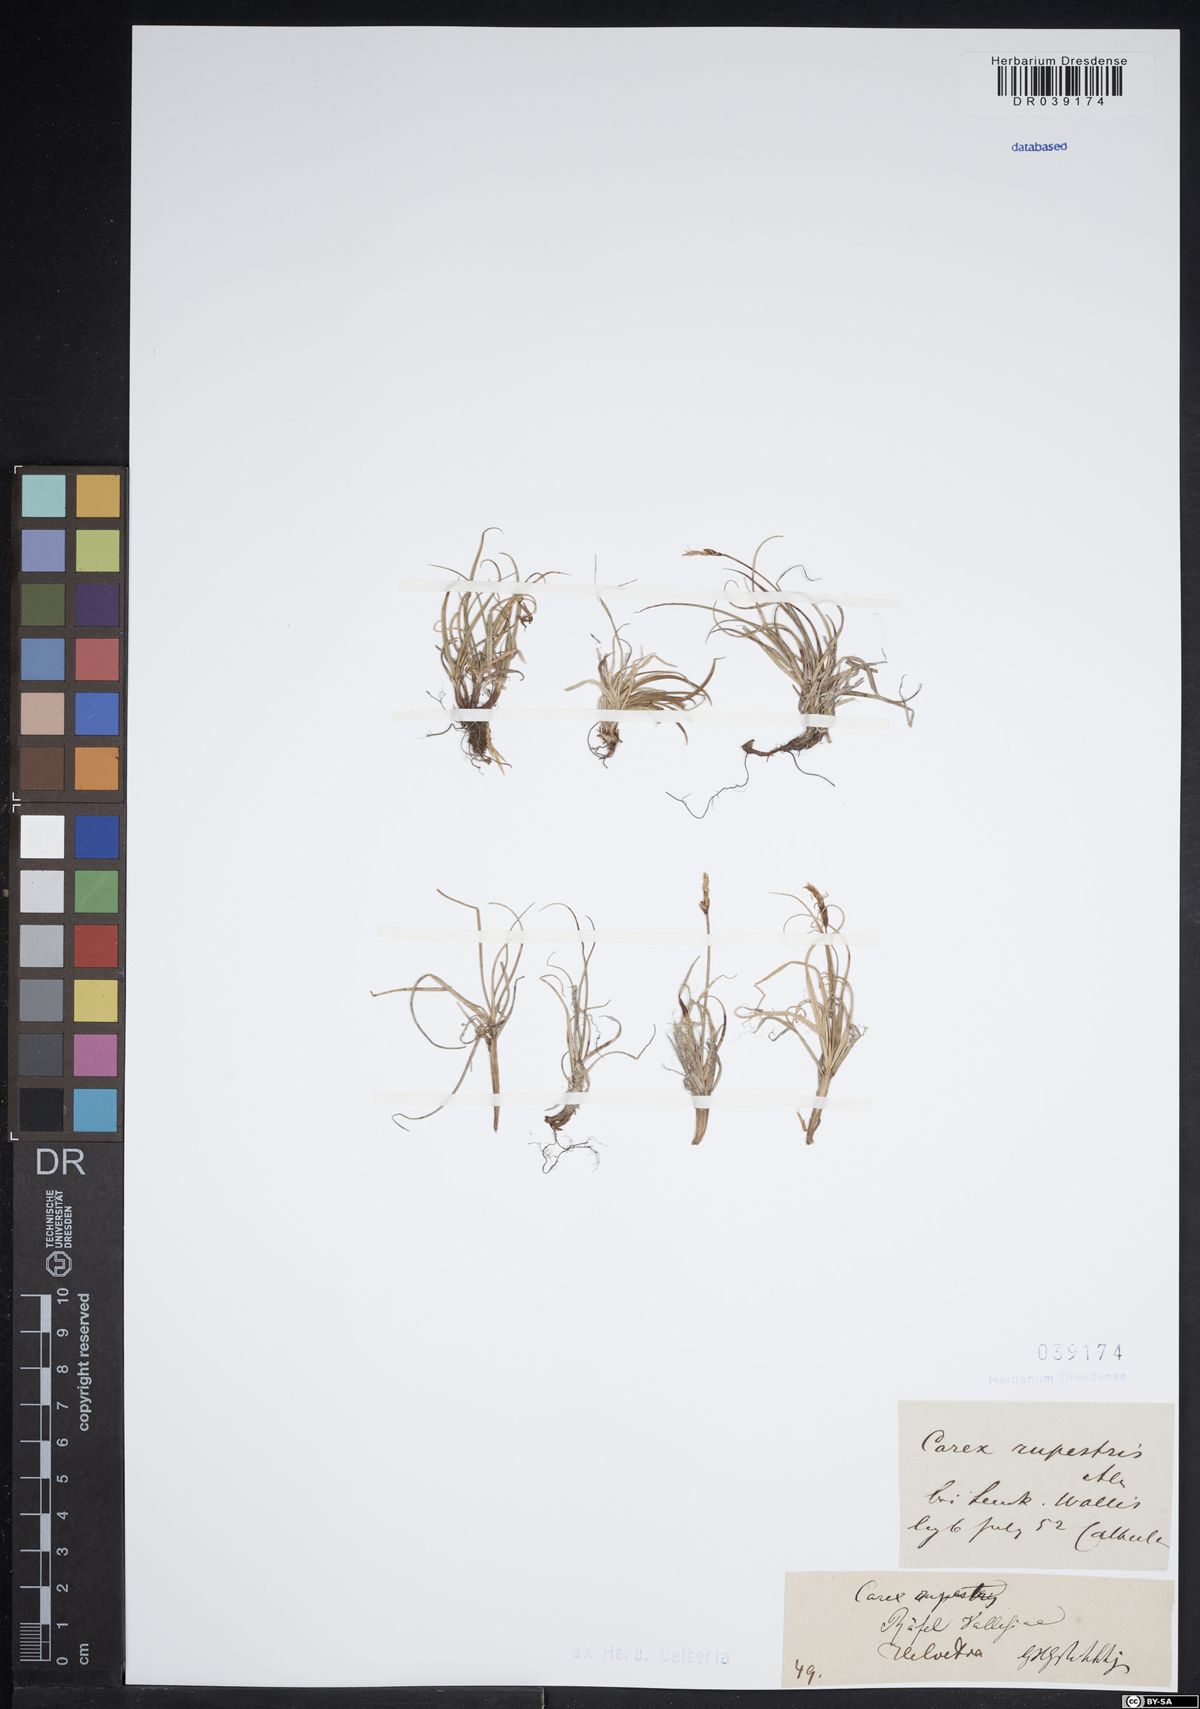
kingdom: Plantae
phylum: Tracheophyta
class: Liliopsida
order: Poales
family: Cyperaceae
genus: Carex
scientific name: Carex rupestris
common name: Rock sedge
